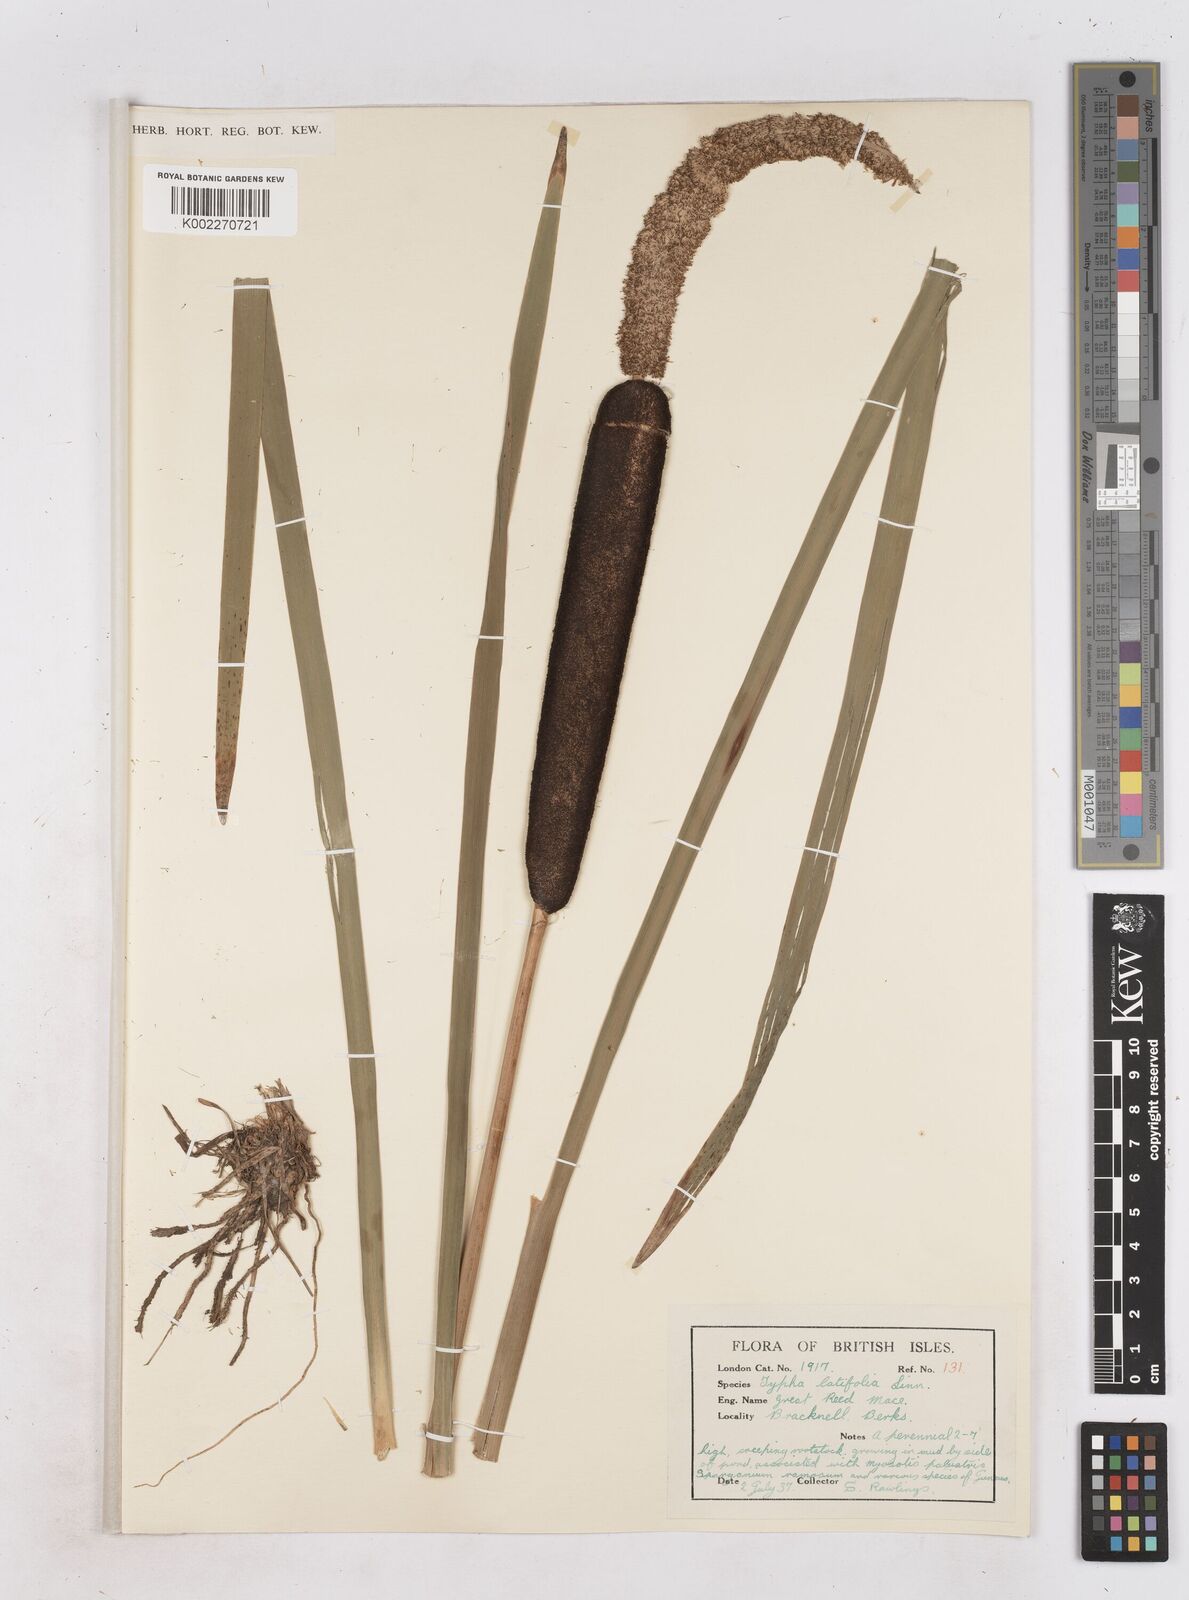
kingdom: Plantae
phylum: Tracheophyta
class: Liliopsida
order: Poales
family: Typhaceae
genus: Typha
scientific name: Typha latifolia
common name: Broadleaf cattail
